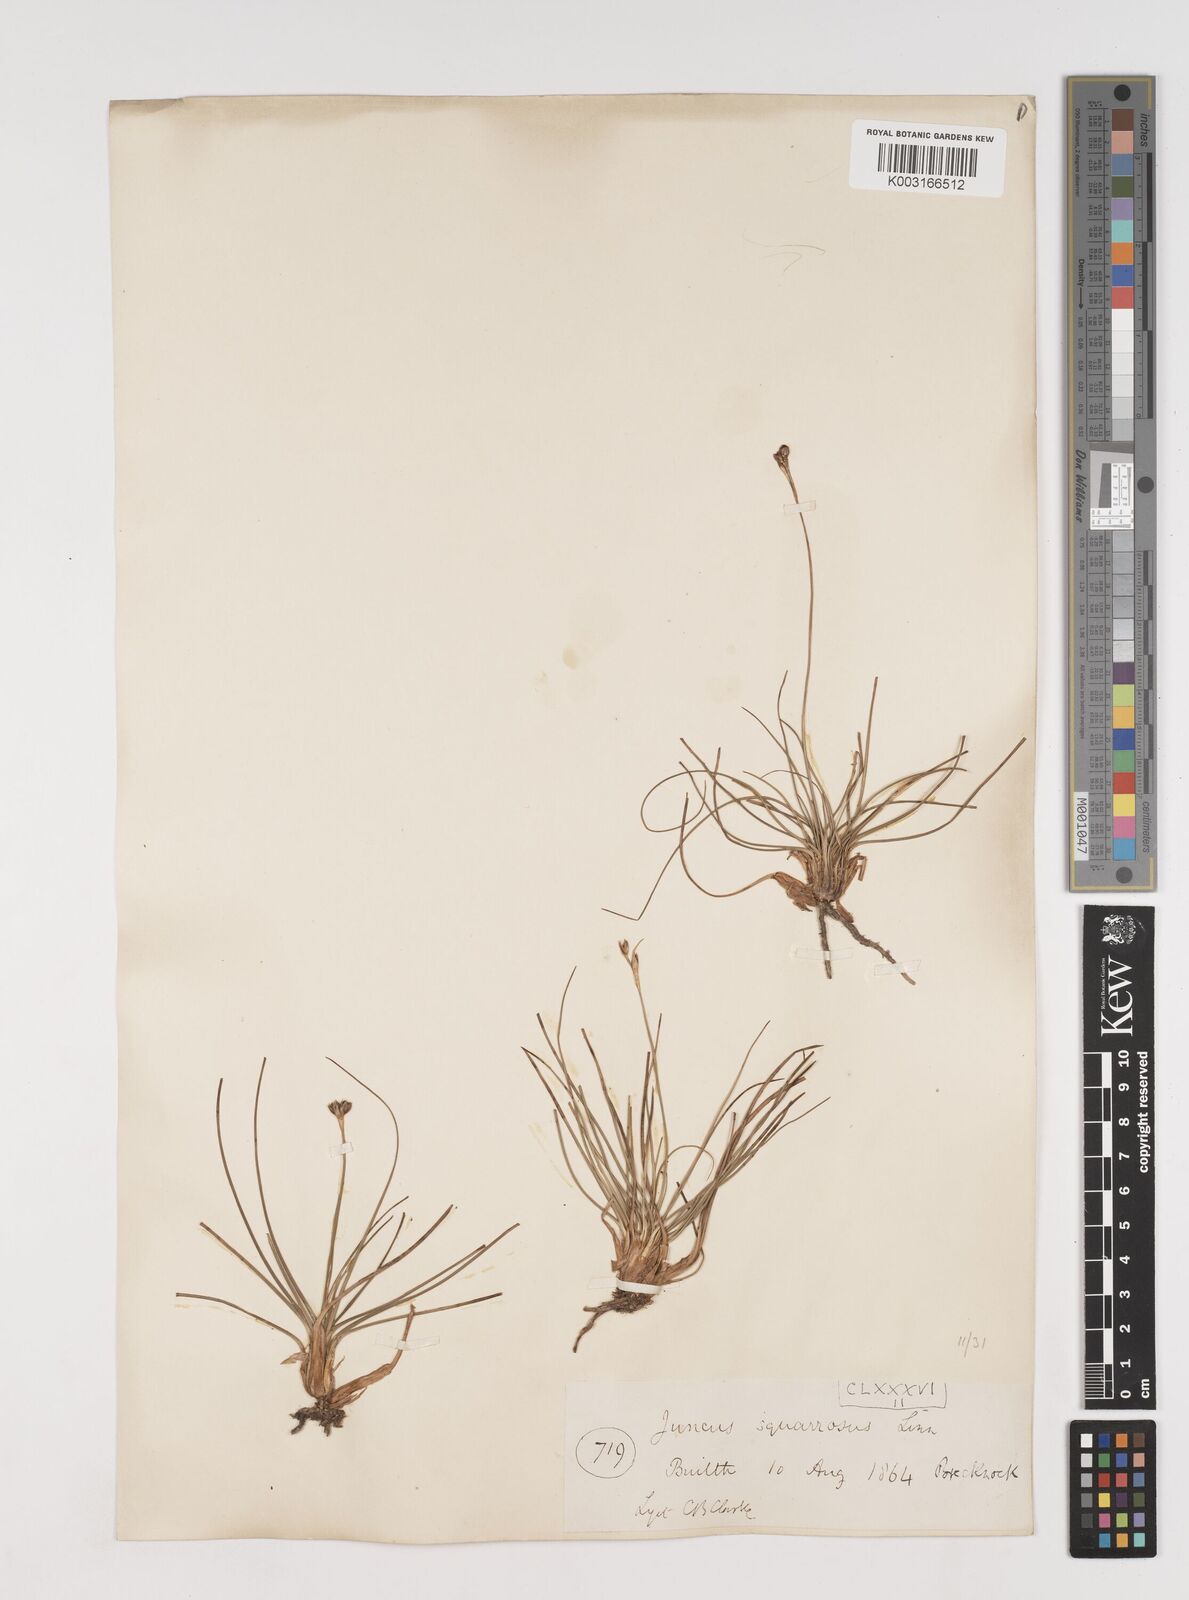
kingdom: Plantae
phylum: Tracheophyta
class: Liliopsida
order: Poales
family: Juncaceae
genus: Juncus
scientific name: Juncus squarrosus
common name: Heath rush
